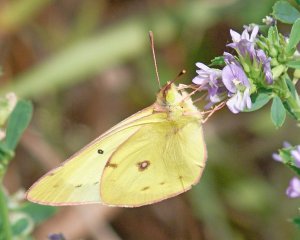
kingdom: Animalia
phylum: Arthropoda
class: Insecta
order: Lepidoptera
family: Pieridae
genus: Colias
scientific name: Colias philodice
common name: Clouded Sulphur
